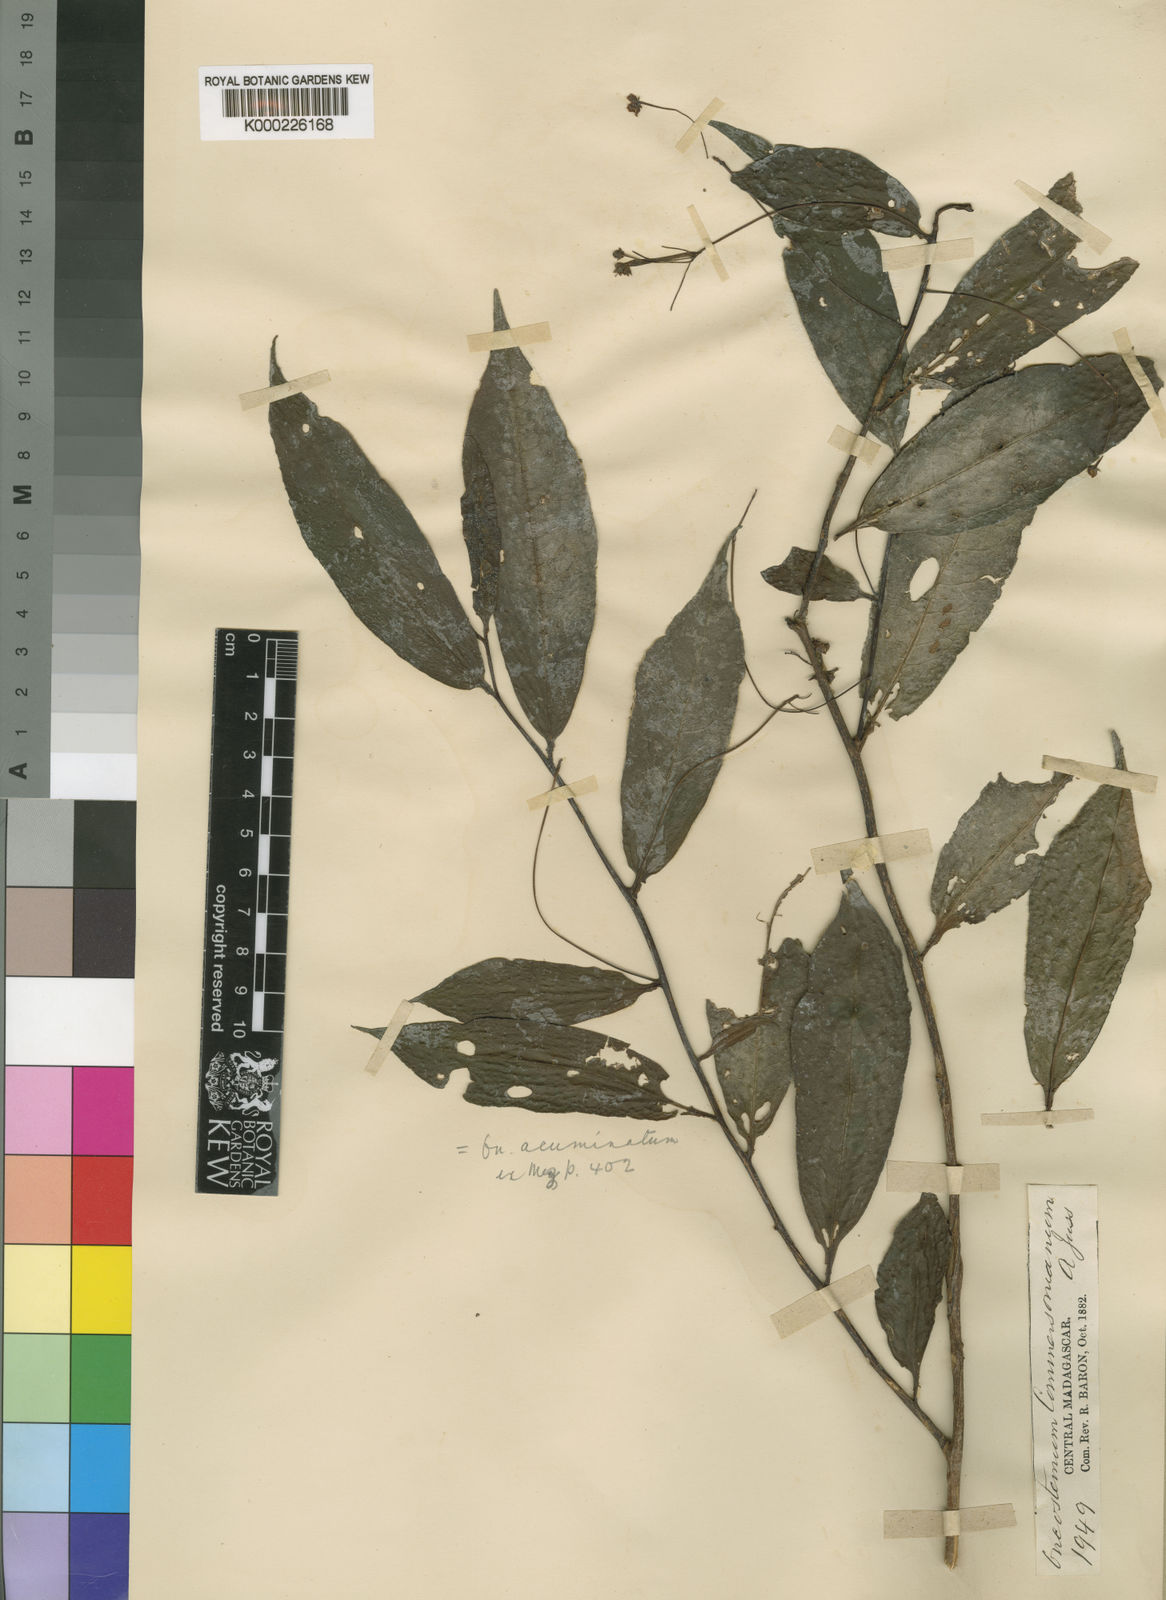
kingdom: Plantae
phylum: Tracheophyta
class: Magnoliopsida
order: Ericales
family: Primulaceae
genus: Oncostemum
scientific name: Oncostemum acuminatum
